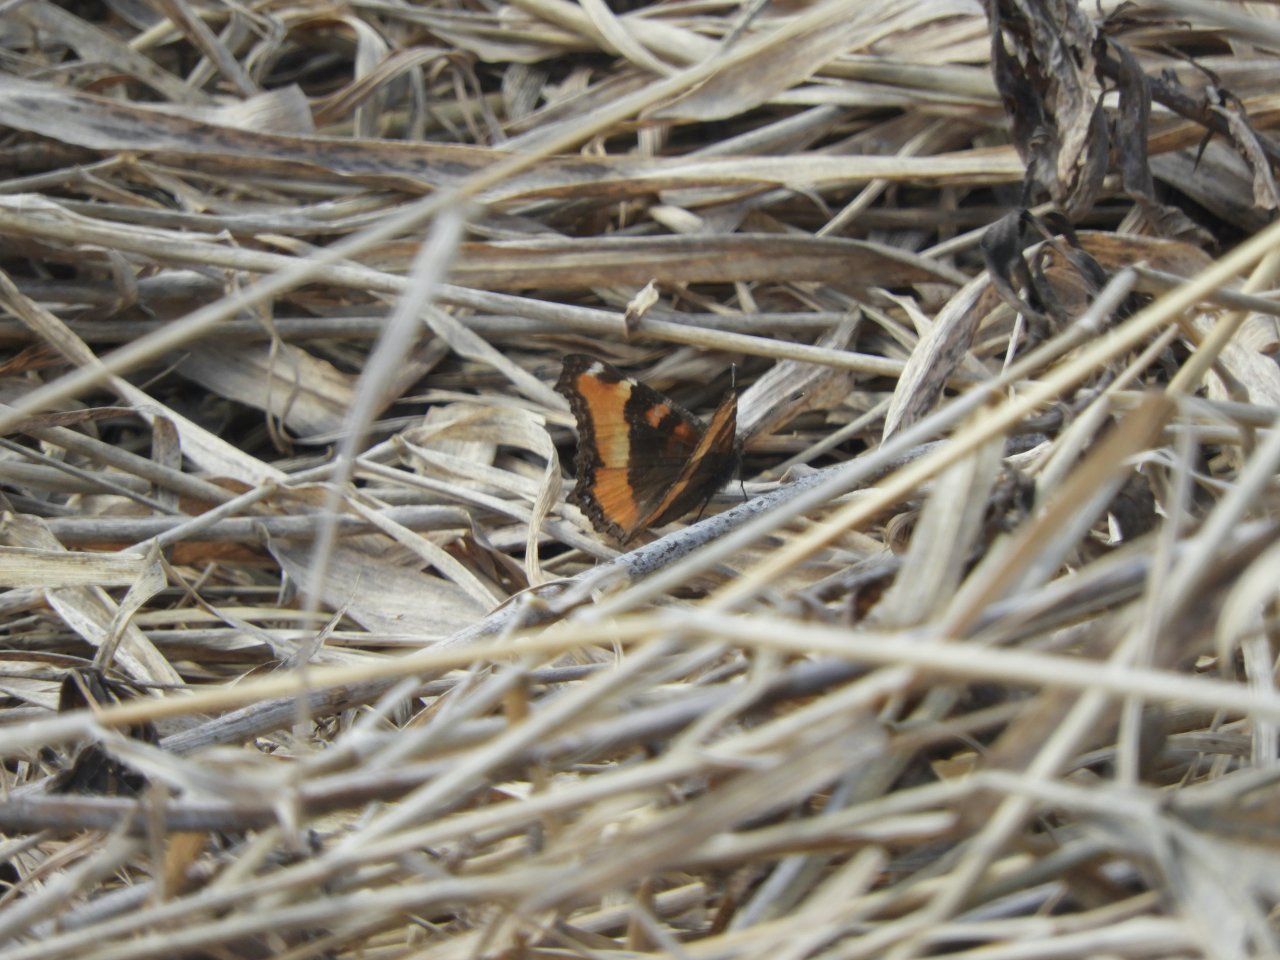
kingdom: Animalia
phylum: Arthropoda
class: Insecta
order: Lepidoptera
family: Nymphalidae
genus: Aglais
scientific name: Aglais milberti
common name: Milbert's Tortoiseshell
